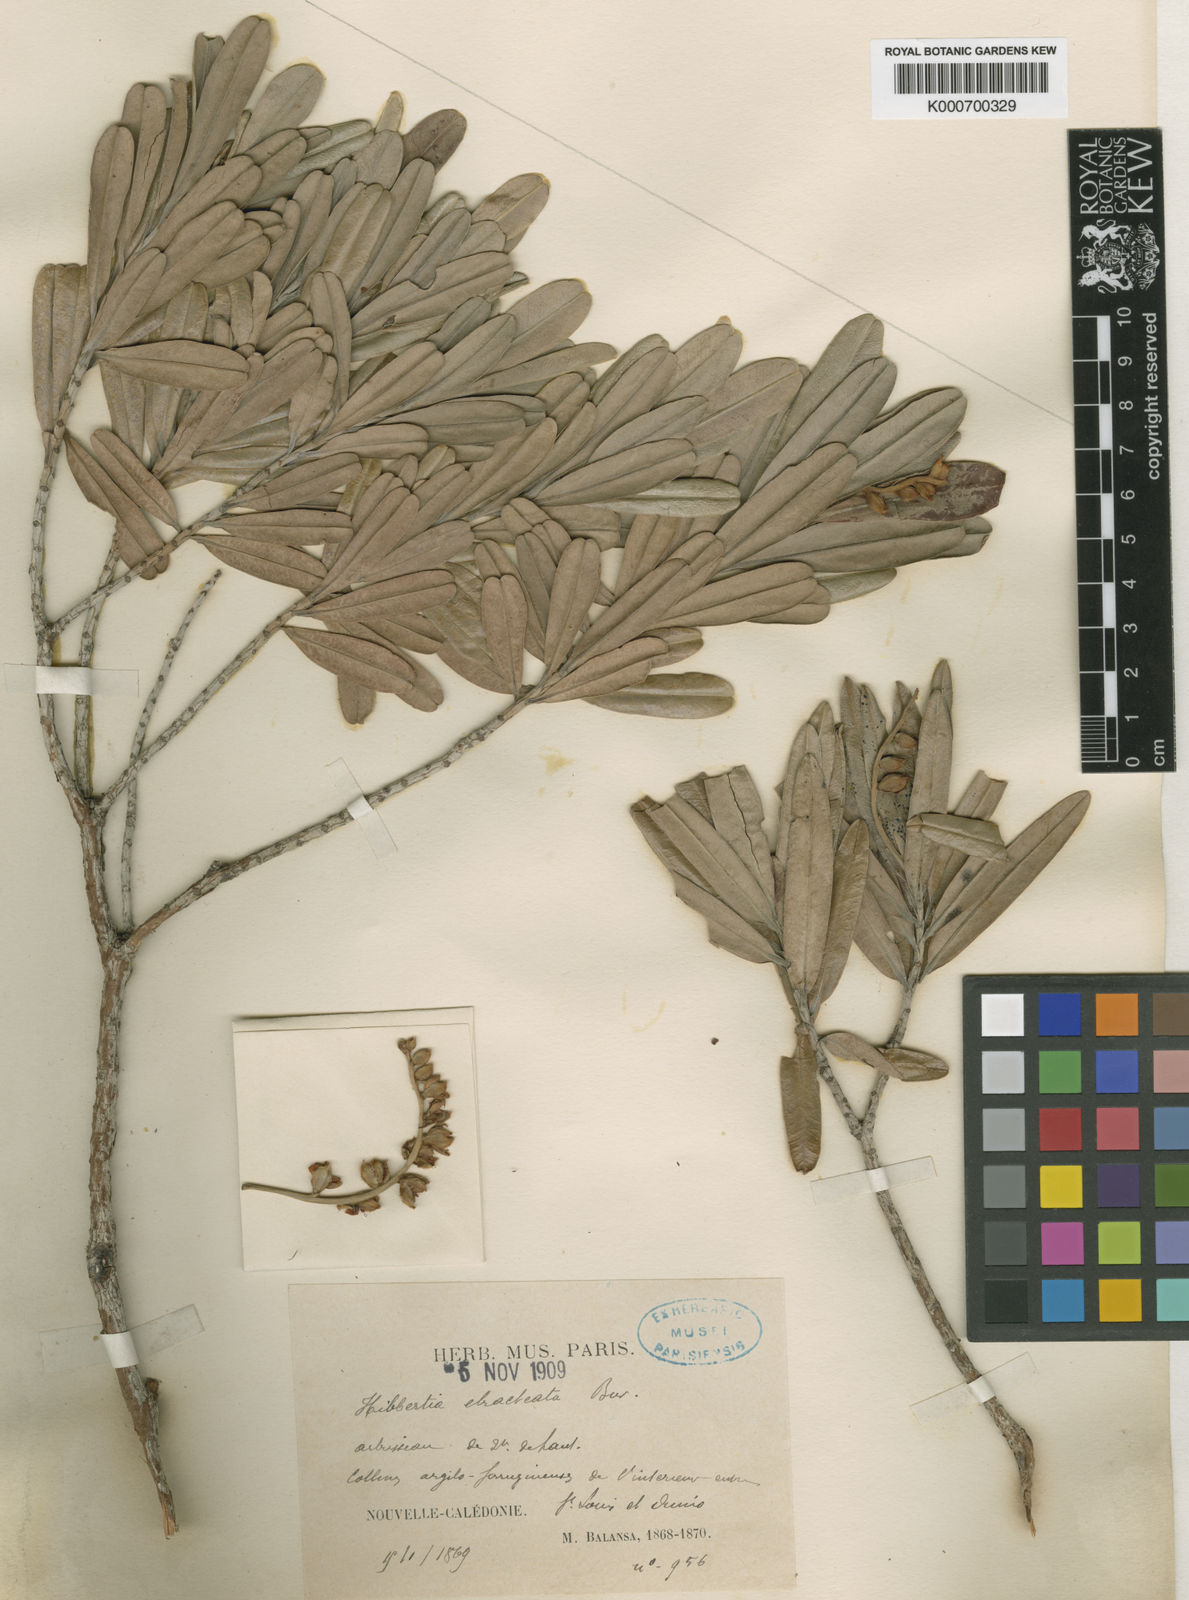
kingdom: Plantae
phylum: Tracheophyta
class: Magnoliopsida
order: Dilleniales
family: Dilleniaceae
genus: Hibbertia
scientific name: Hibbertia ebracteata
